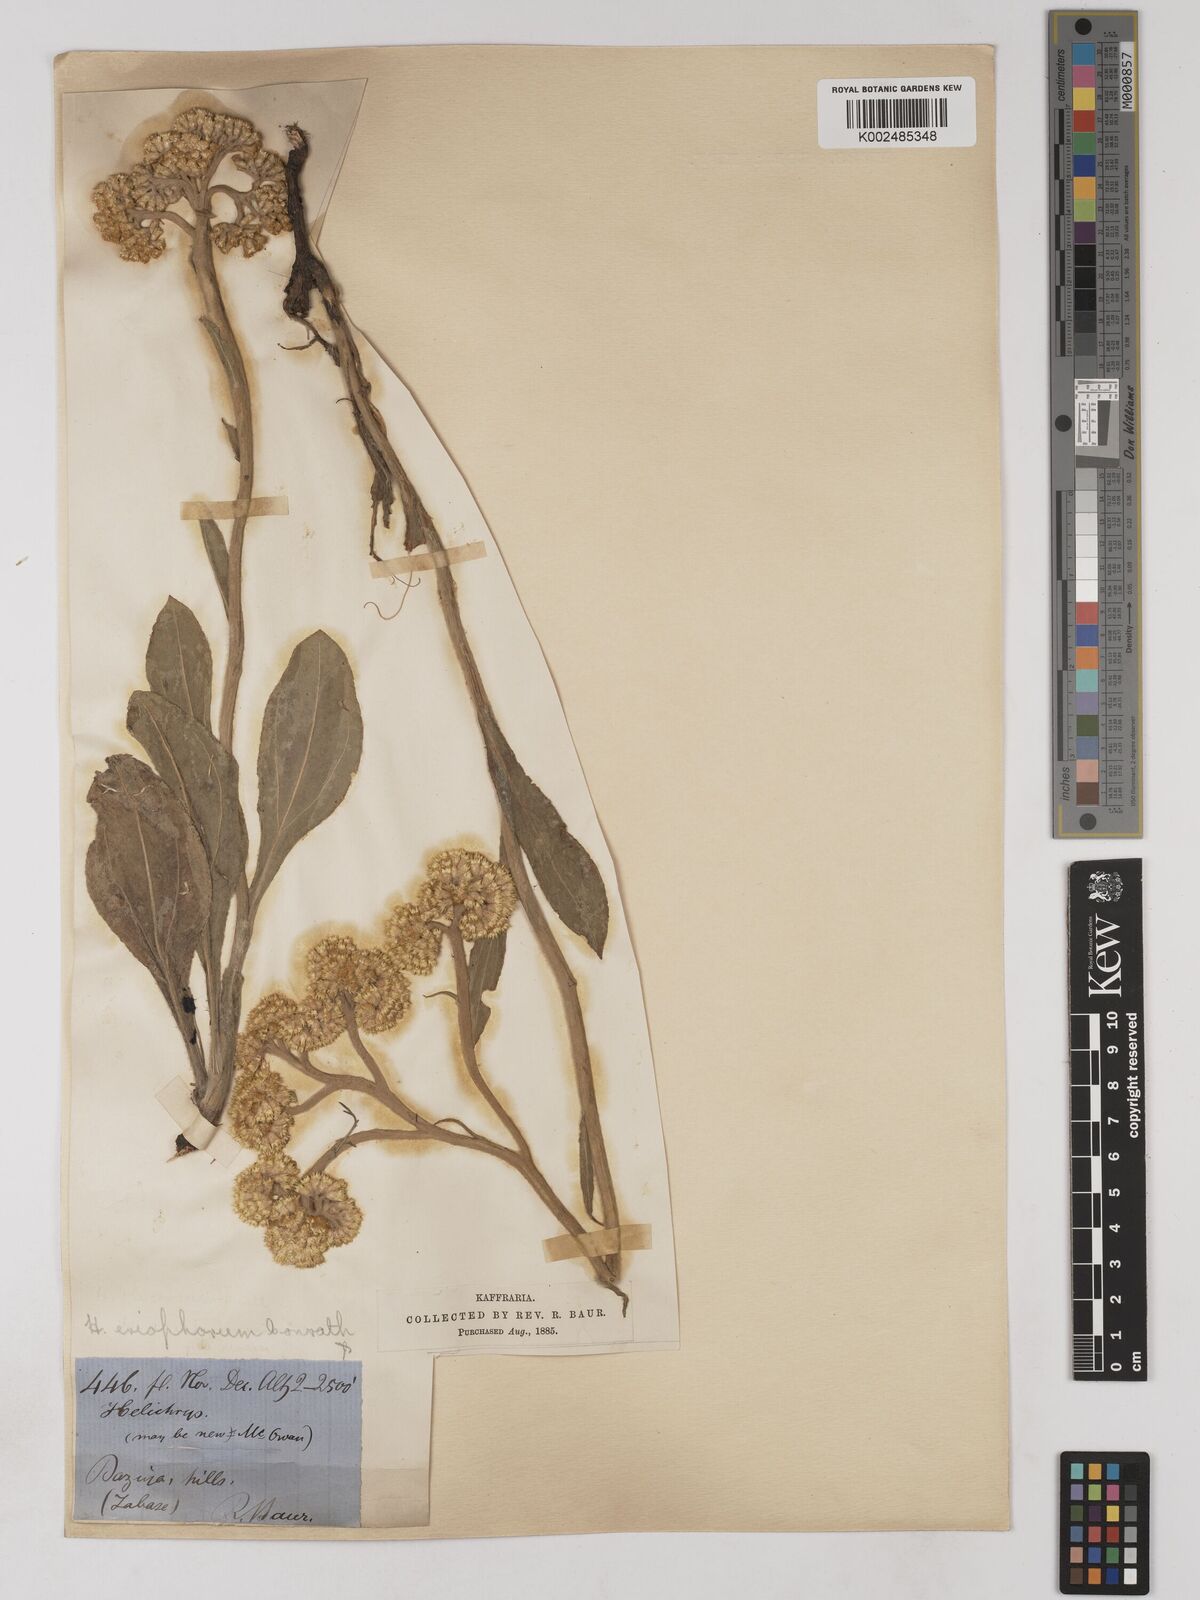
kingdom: Plantae
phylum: Tracheophyta
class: Magnoliopsida
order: Asterales
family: Asteraceae
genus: Helichrysum
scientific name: Helichrysum acutatum
